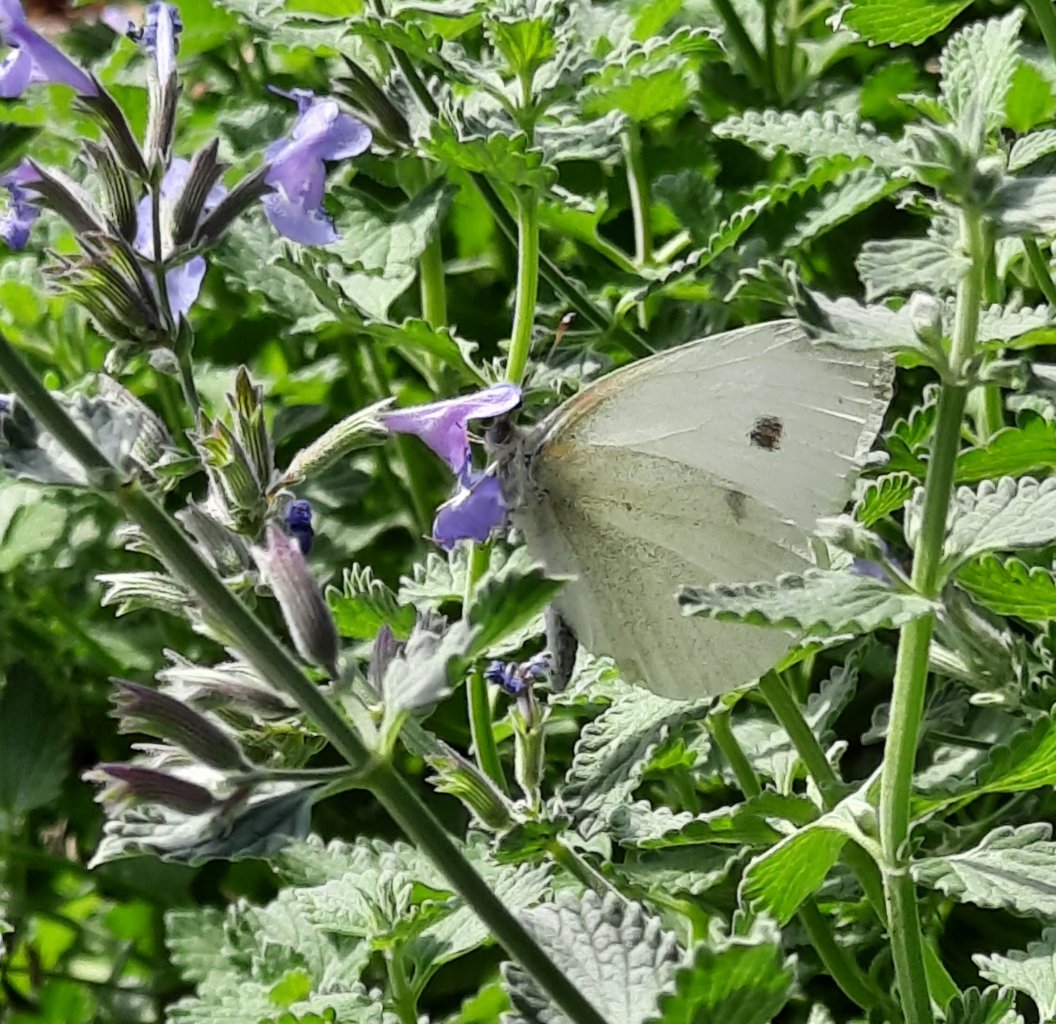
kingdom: Animalia
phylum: Arthropoda
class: Insecta
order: Lepidoptera
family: Pieridae
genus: Pieris
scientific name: Pieris rapae
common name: Cabbage White
